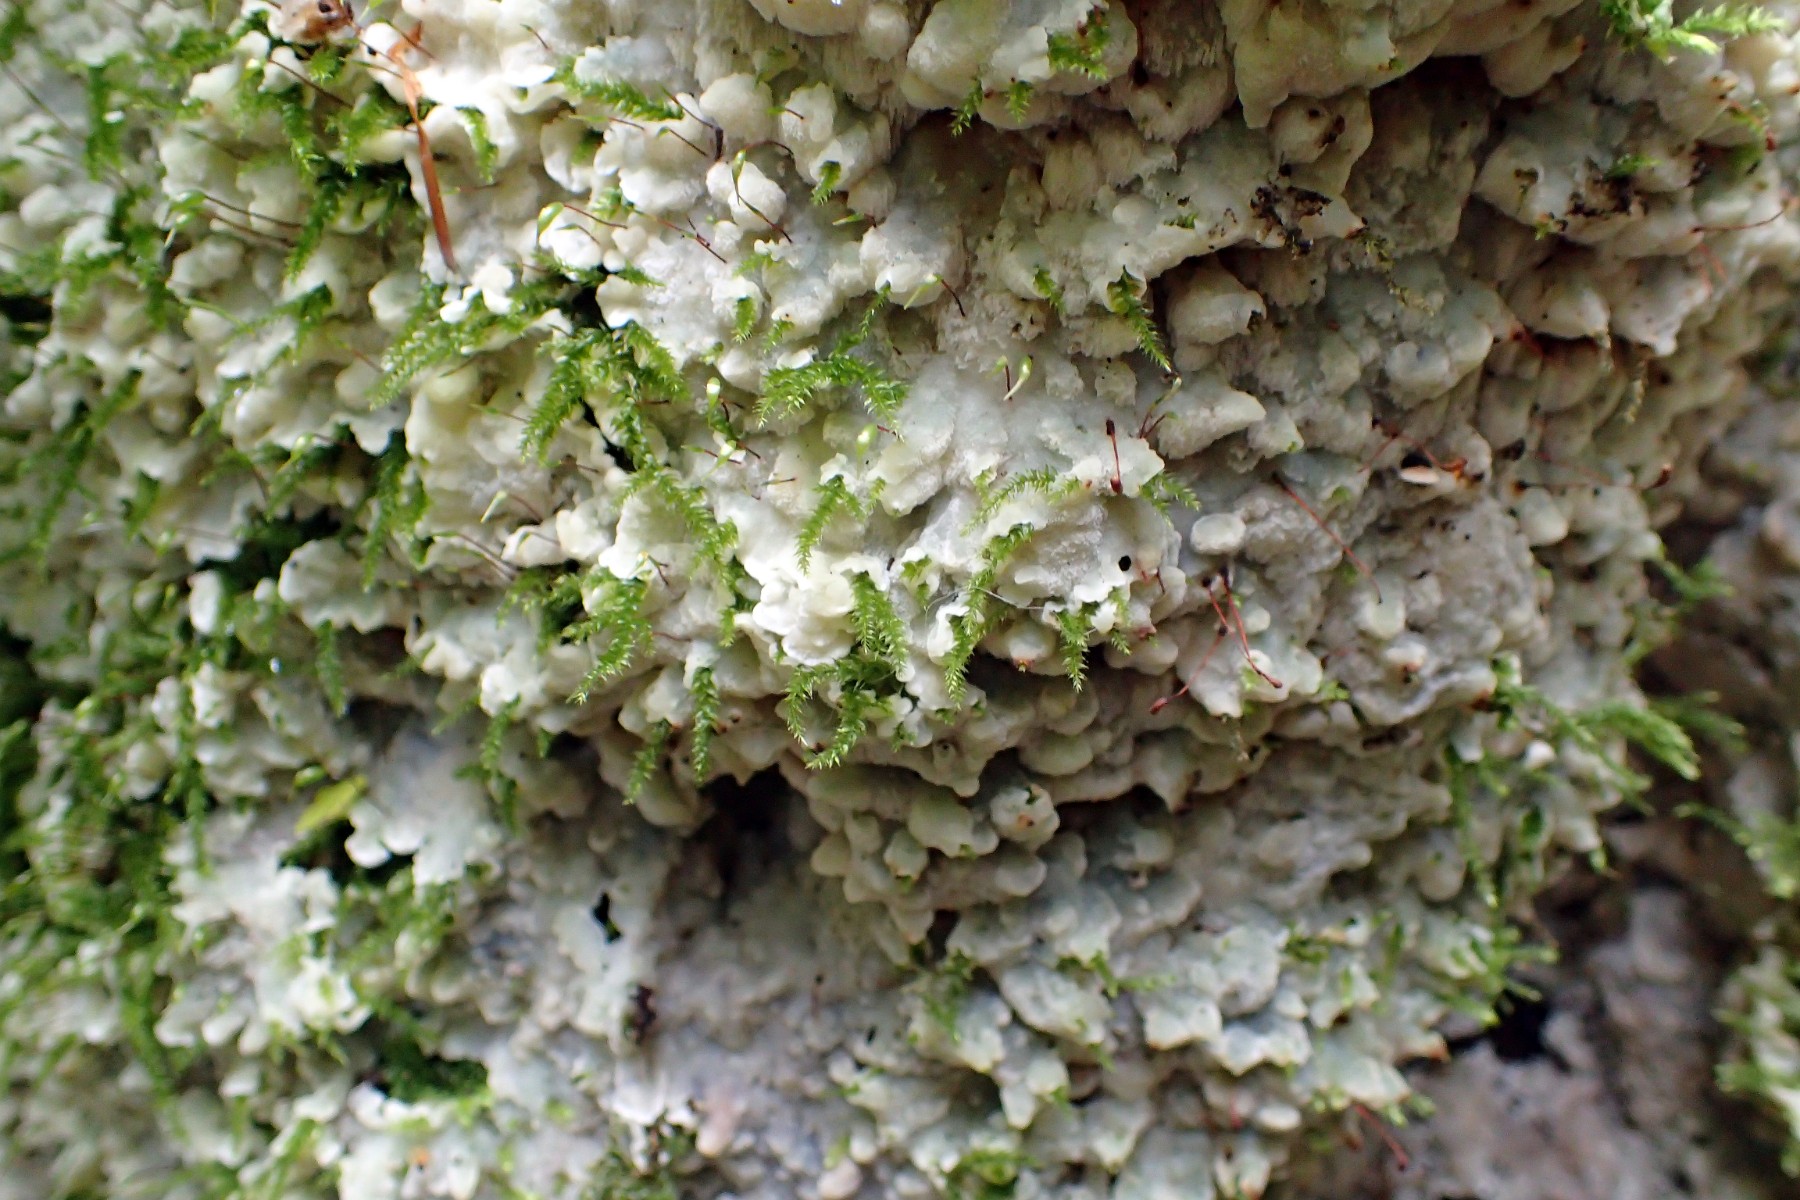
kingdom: Fungi
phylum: Basidiomycota
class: Agaricomycetes
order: Polyporales
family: Meruliaceae
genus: Physisporinus
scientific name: Physisporinus vitreus
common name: mastesvamp
